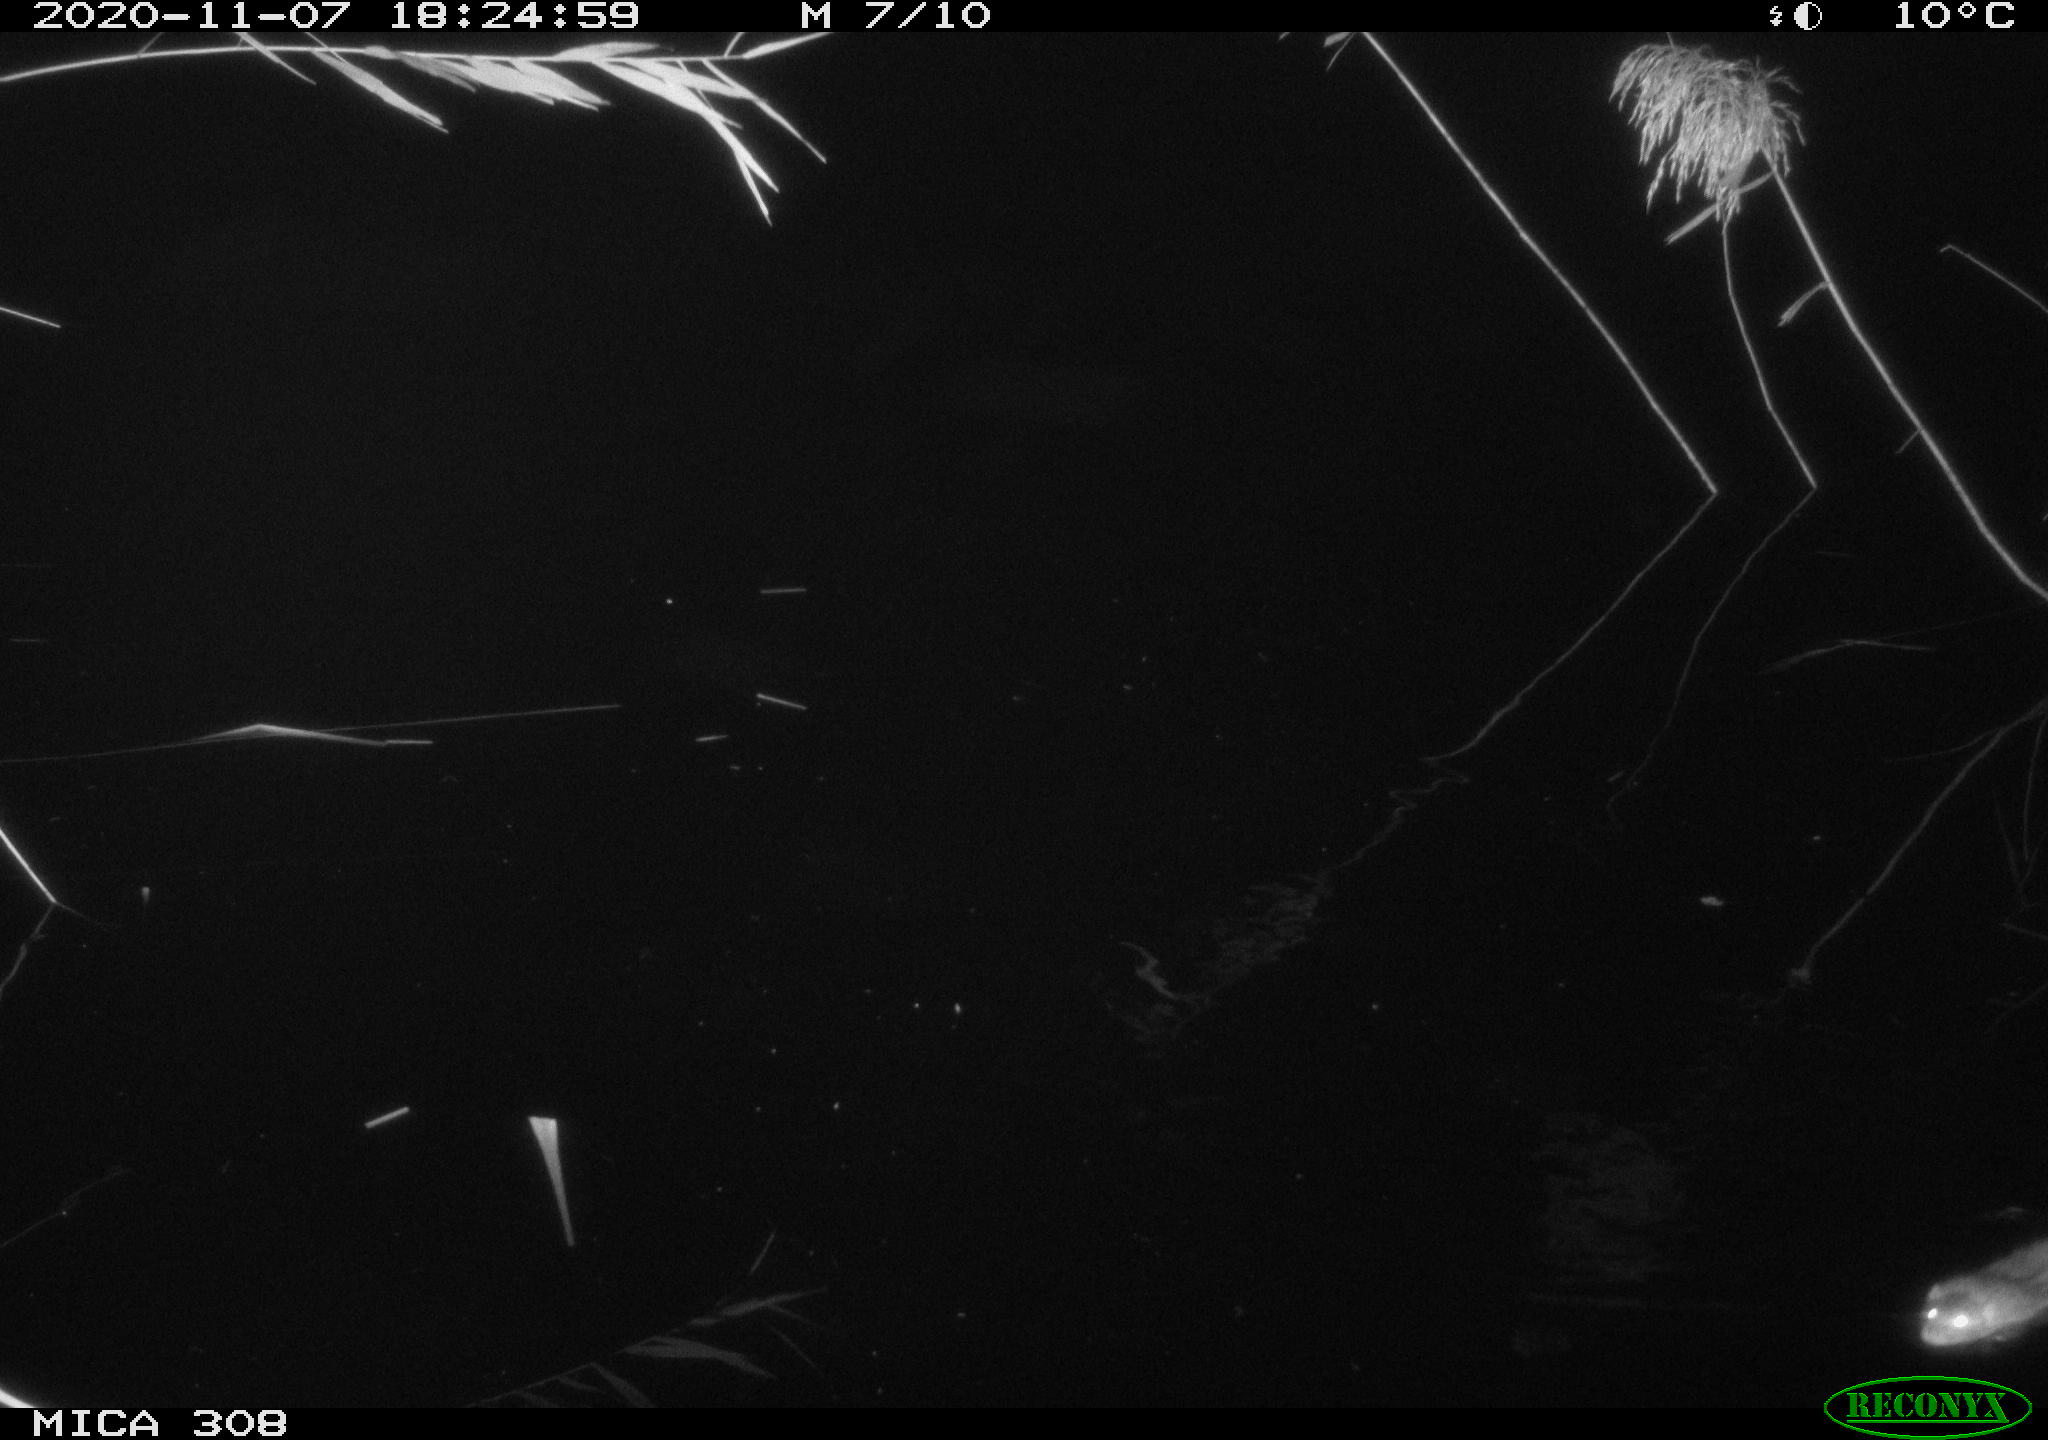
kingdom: Animalia
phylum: Chordata
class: Mammalia
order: Rodentia
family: Muridae
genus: Rattus
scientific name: Rattus norvegicus
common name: Brown rat
